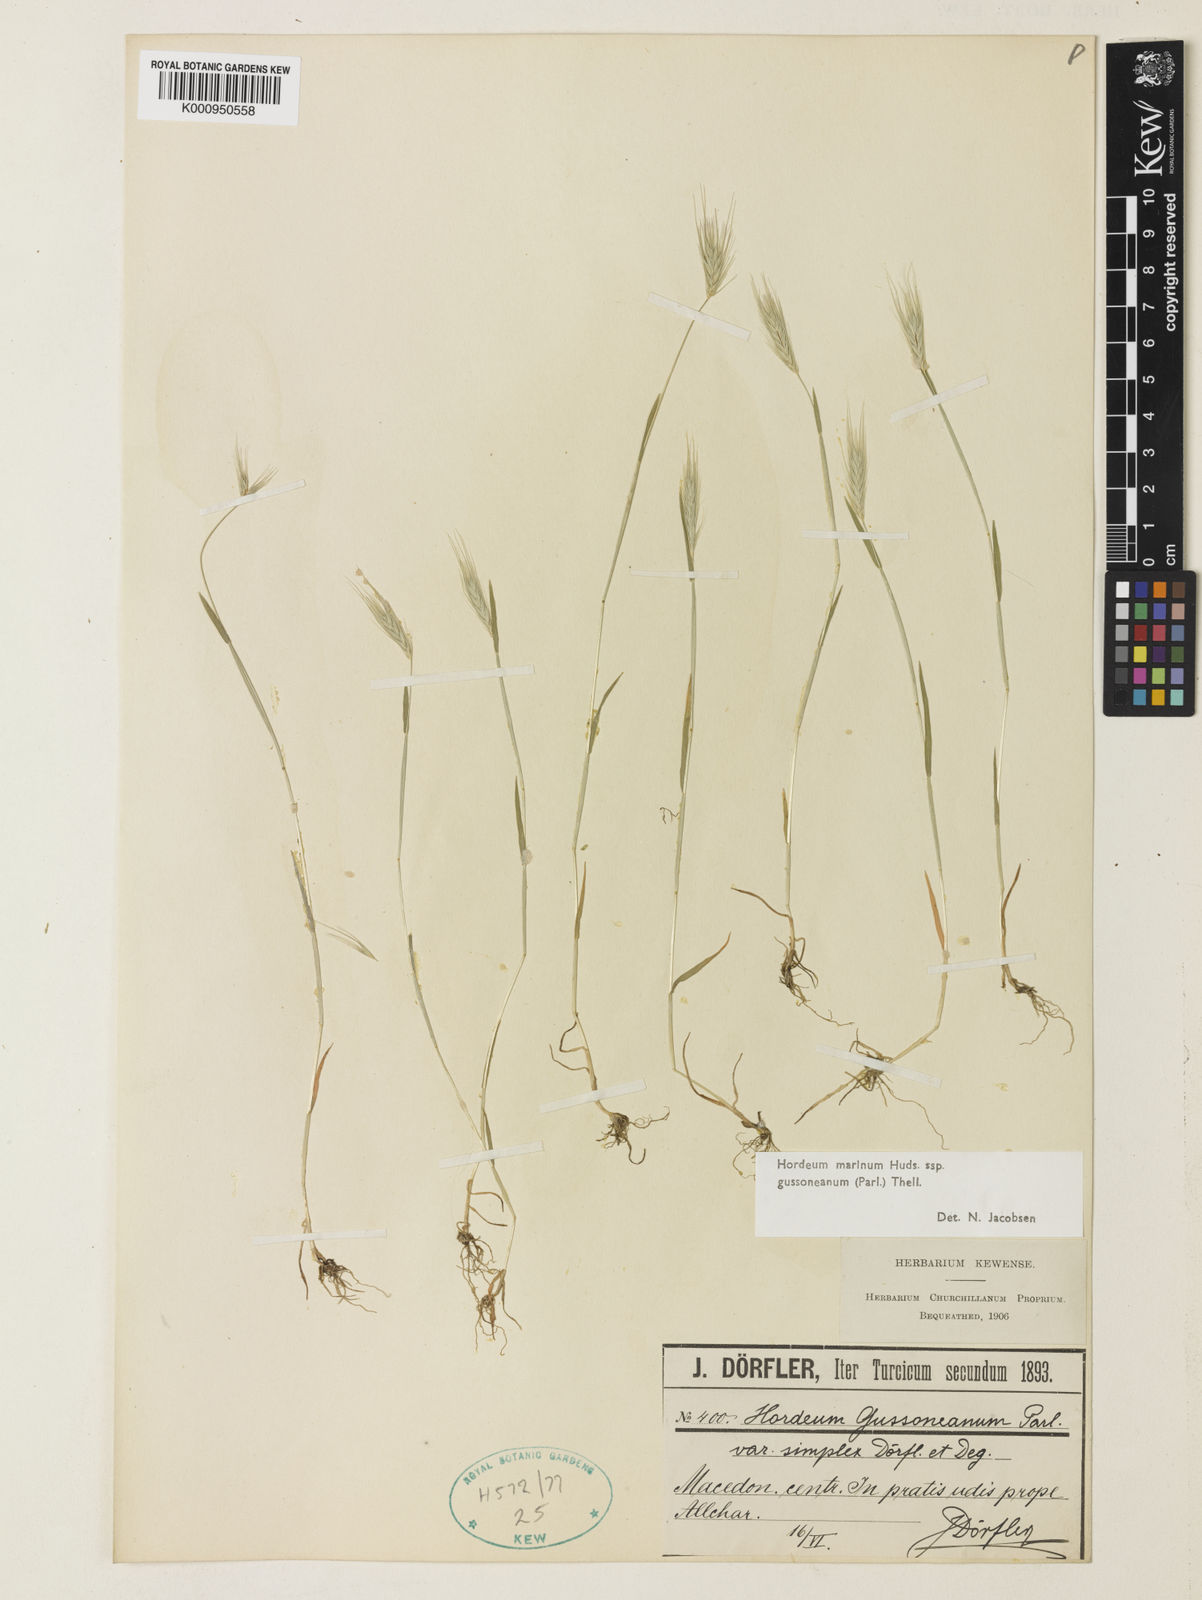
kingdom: Plantae
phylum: Tracheophyta
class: Liliopsida
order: Poales
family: Poaceae
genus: Hordeum
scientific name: Hordeum marinum
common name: Sea barley
